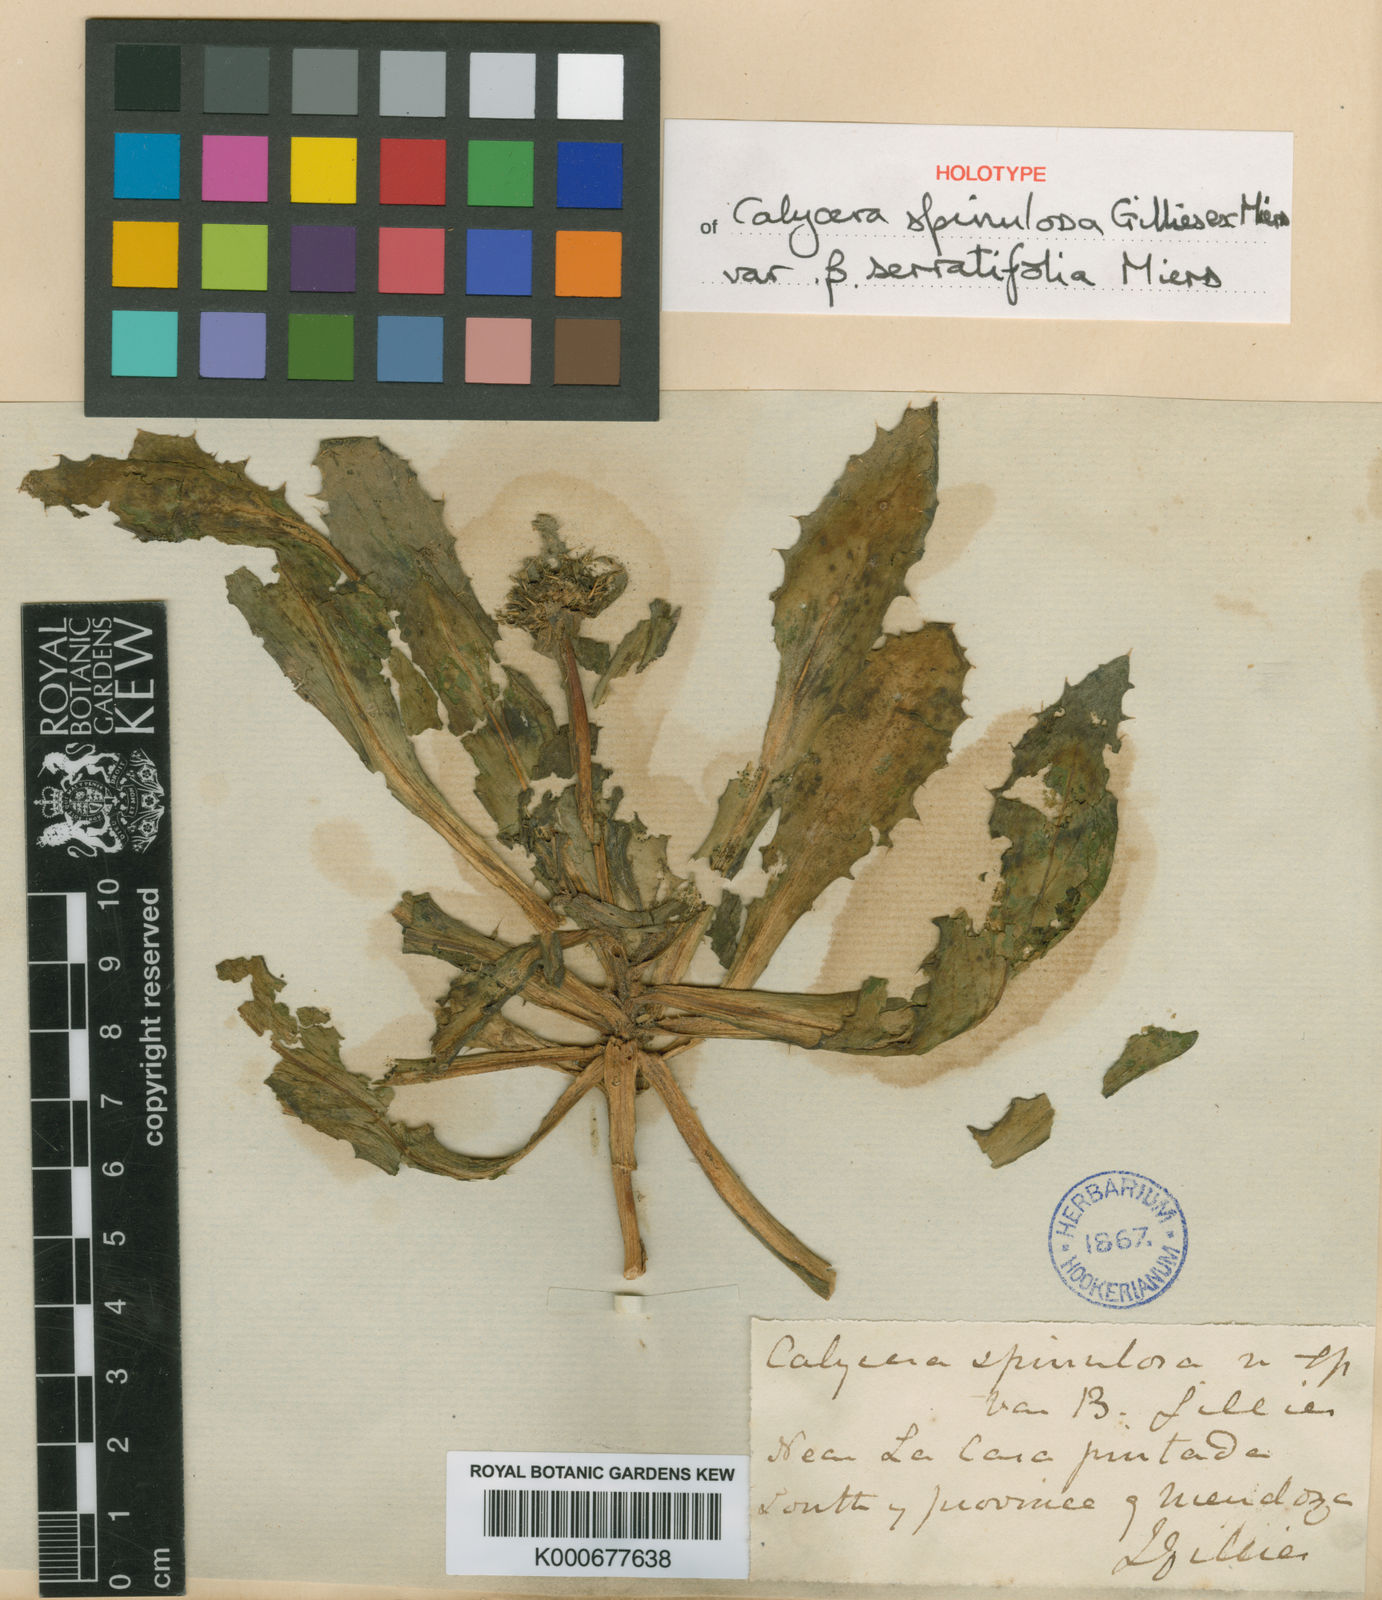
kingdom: Plantae
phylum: Tracheophyta
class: Magnoliopsida
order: Asterales
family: Calyceraceae
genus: Calycera
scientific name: Calycera crassifolia
